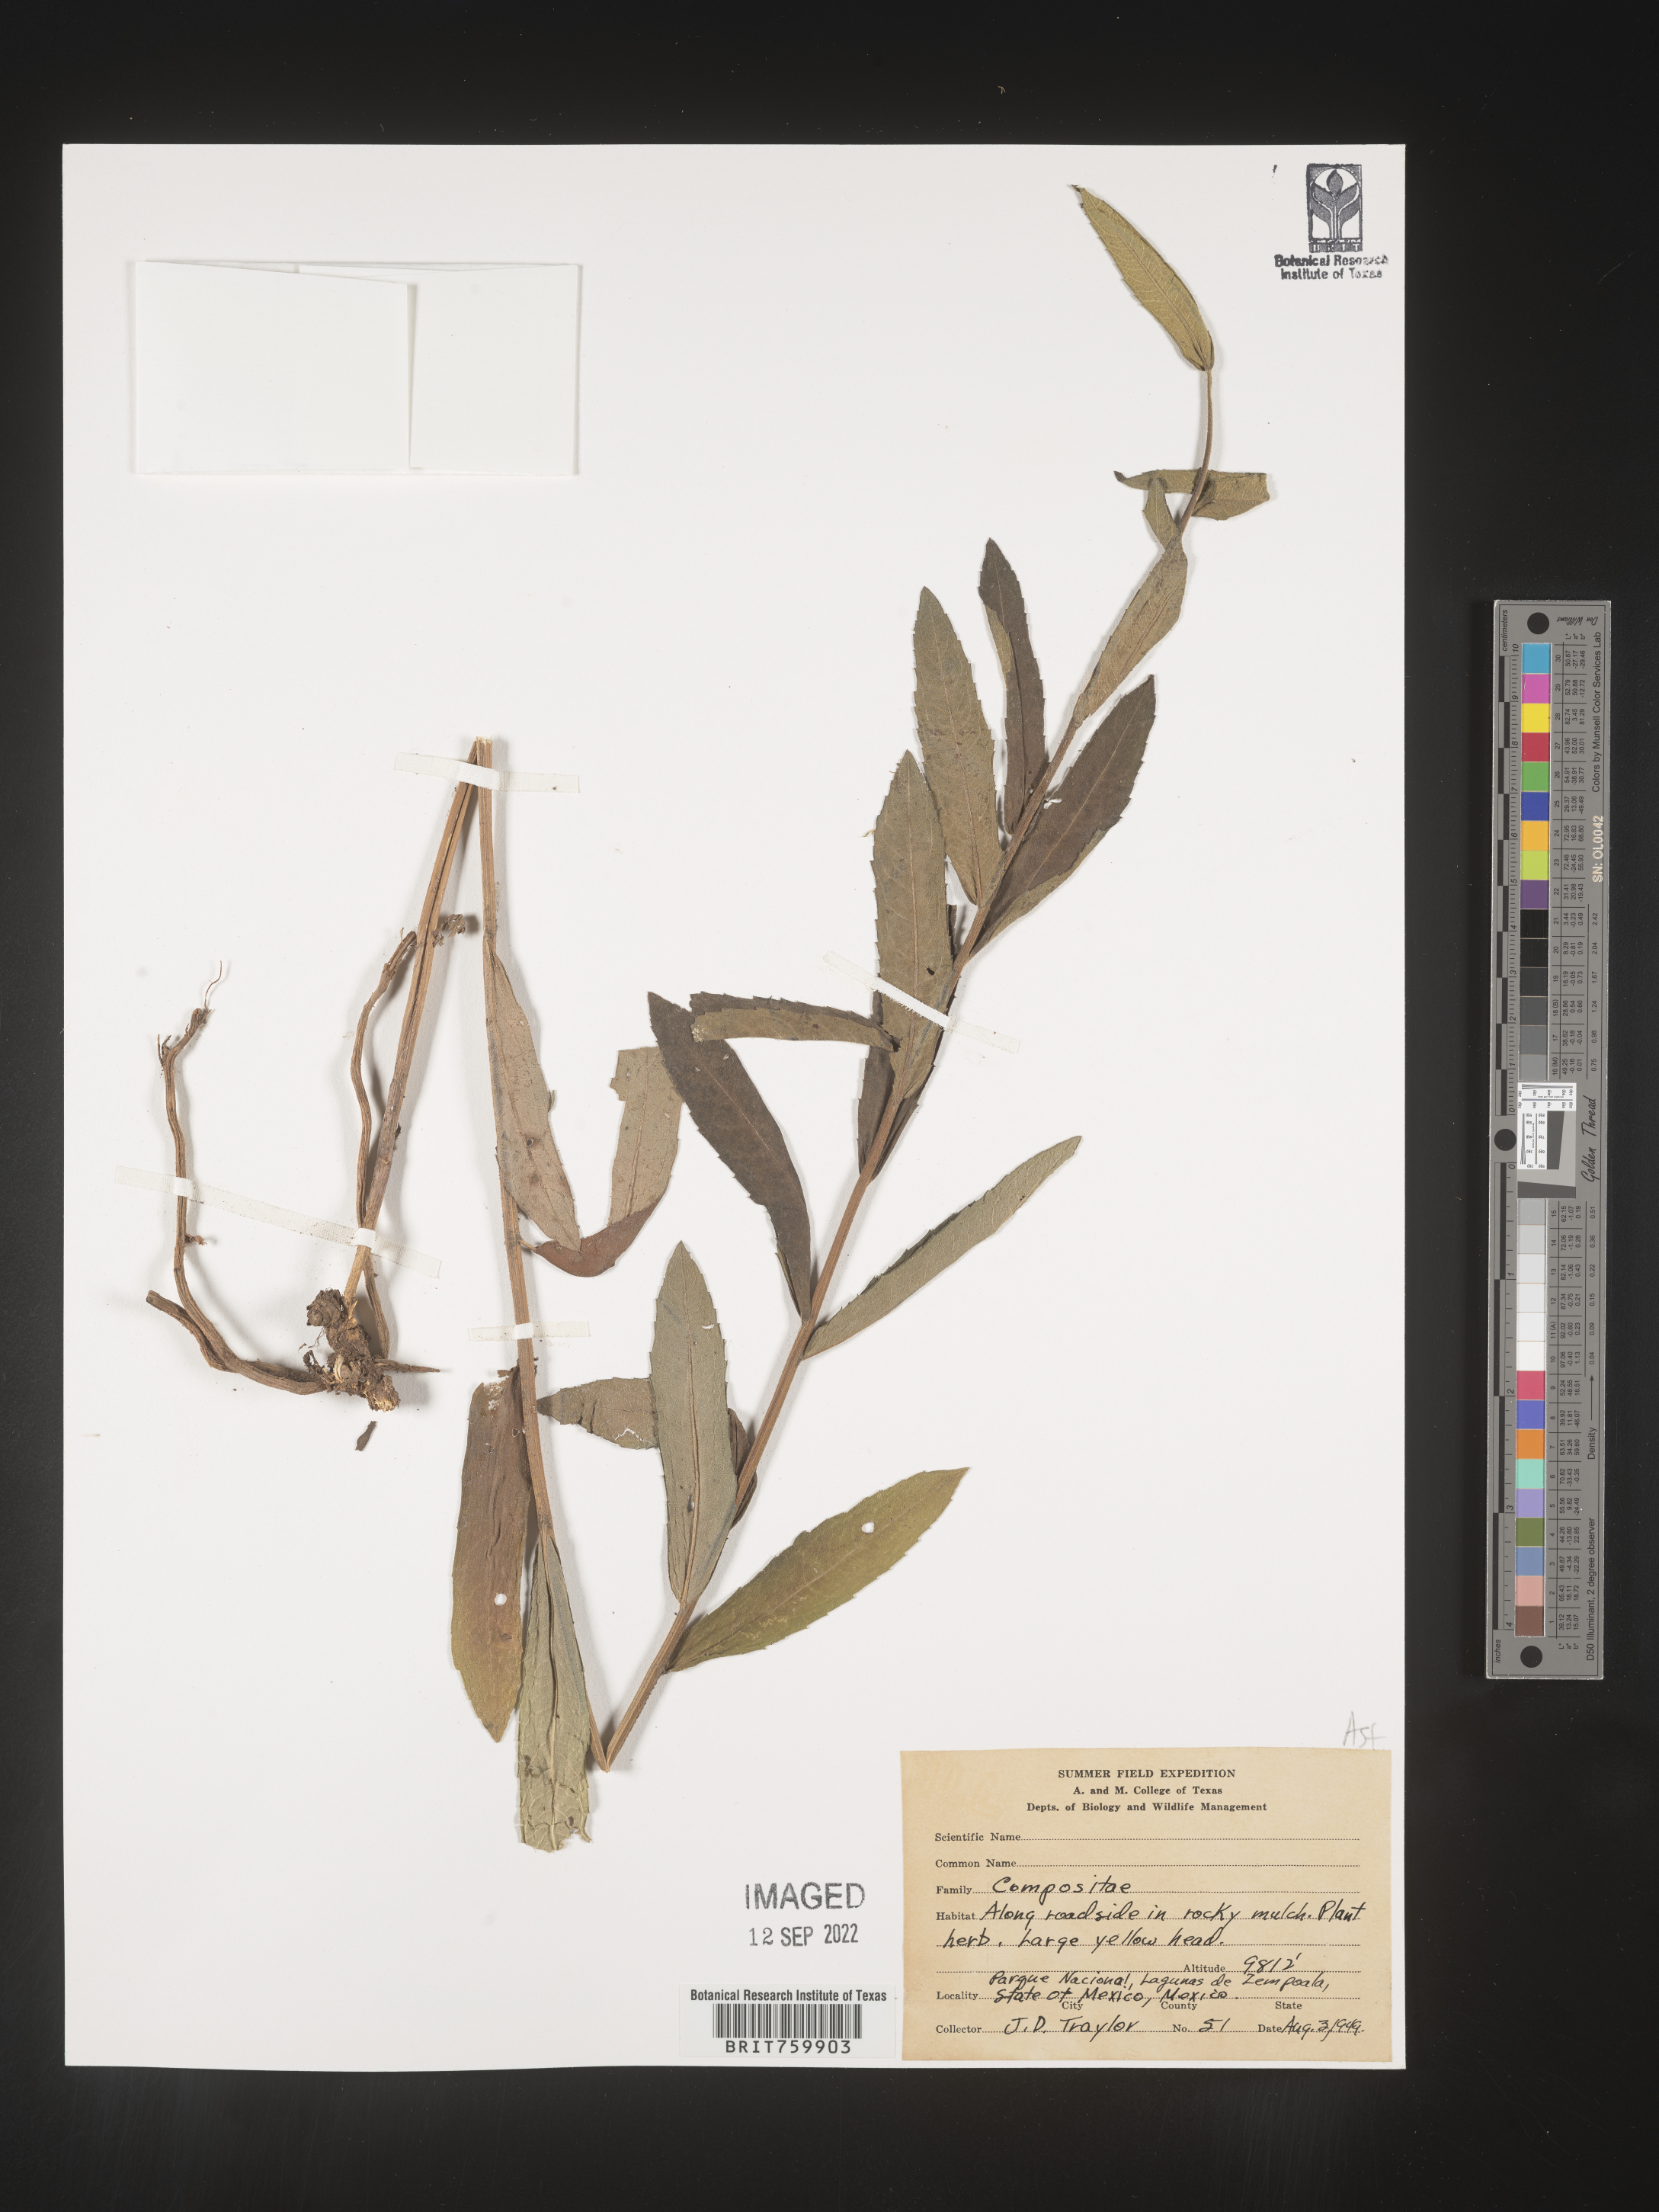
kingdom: Plantae
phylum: Tracheophyta
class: Magnoliopsida
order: Asterales
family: Asteraceae
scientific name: Asteraceae
